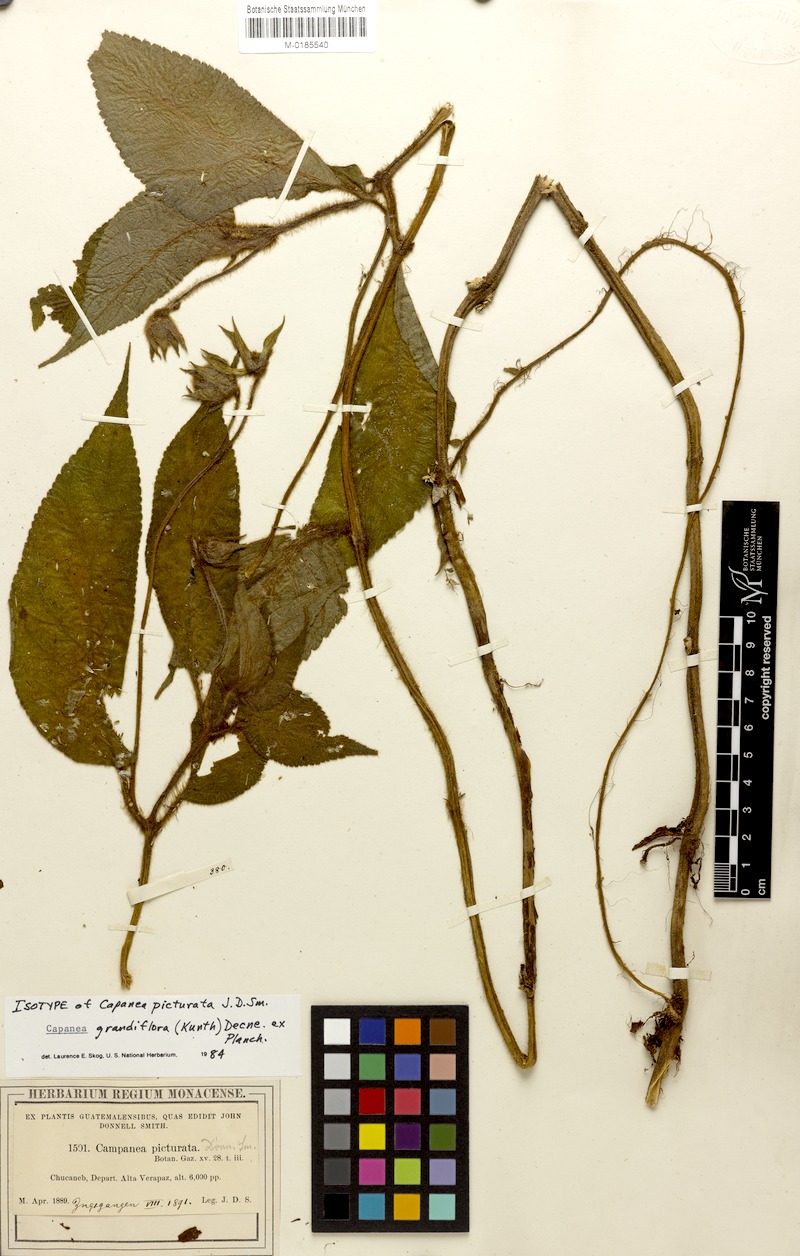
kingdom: Plantae
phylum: Tracheophyta
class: Magnoliopsida
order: Lamiales
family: Gesneriaceae
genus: Kohleria
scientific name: Kohleria tigridia
